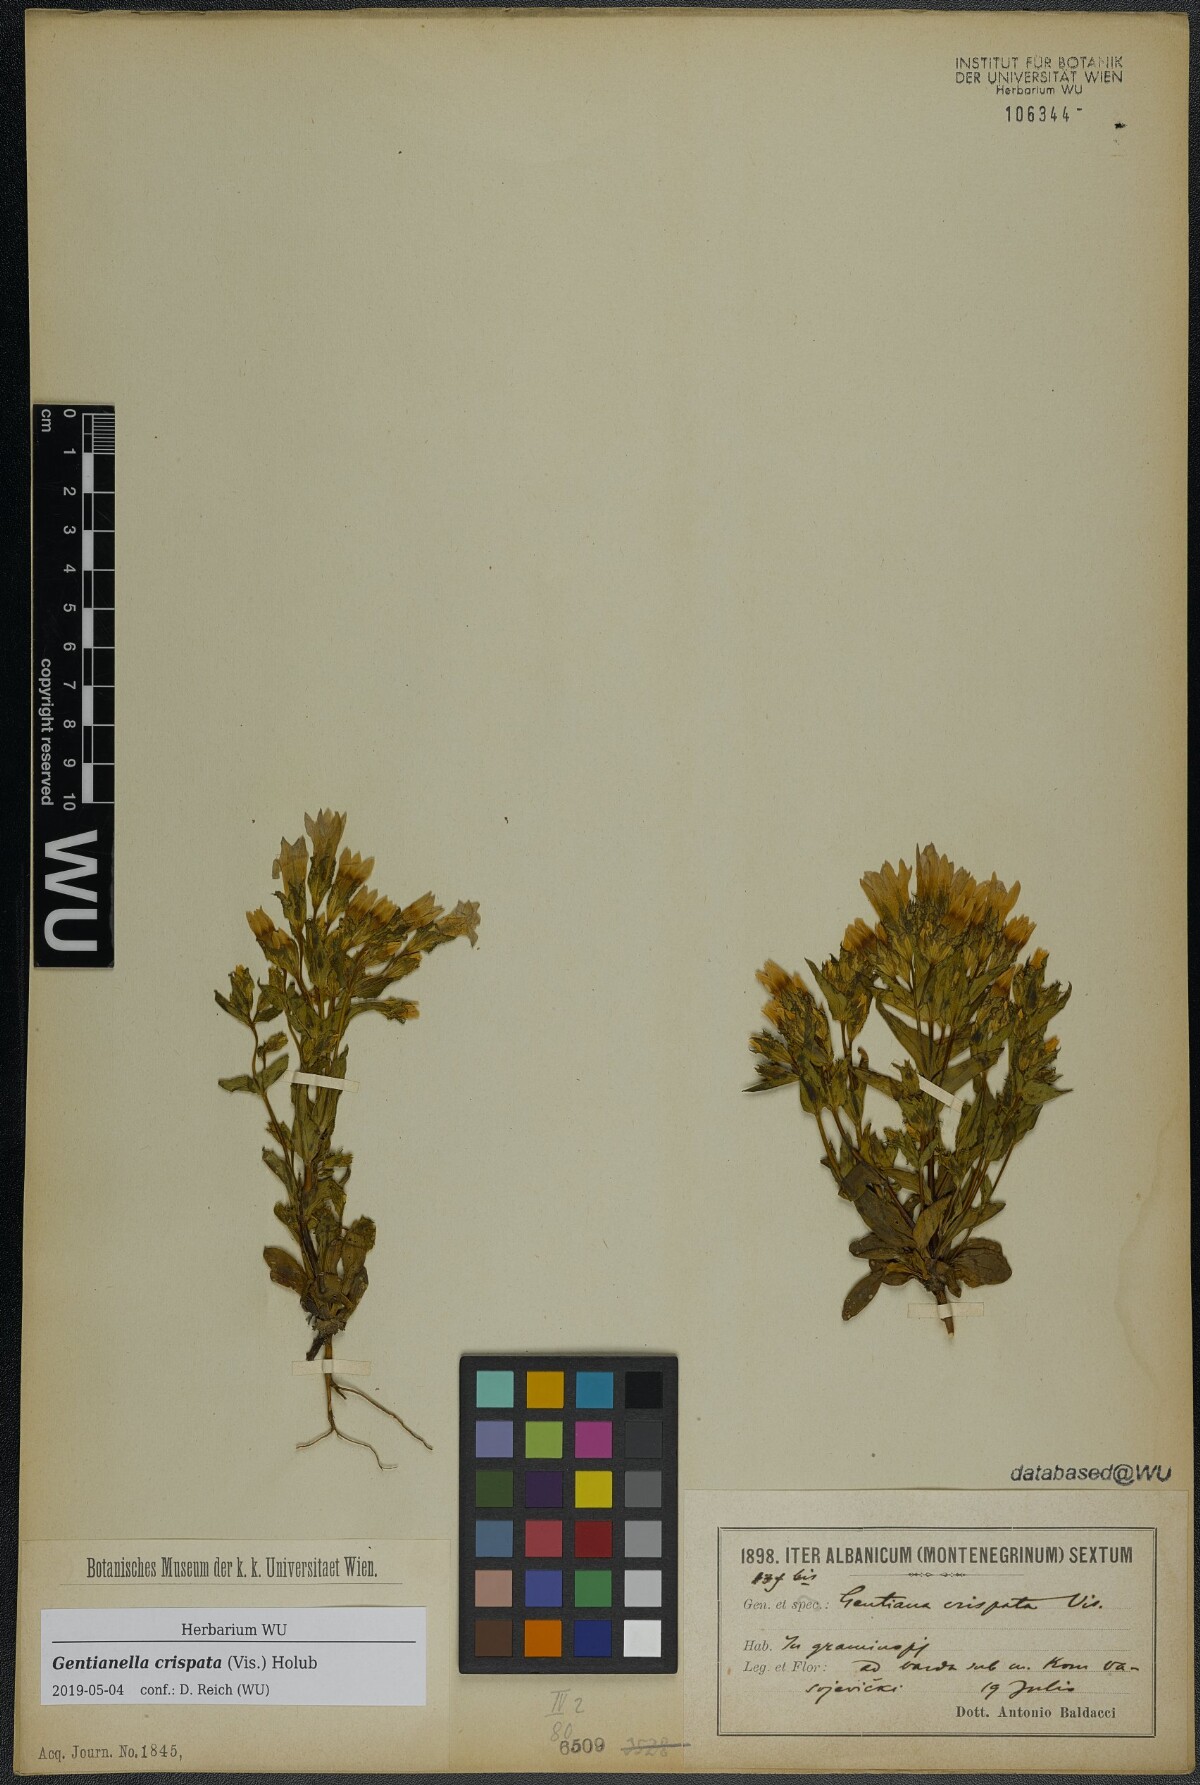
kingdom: Plantae
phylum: Tracheophyta
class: Magnoliopsida
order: Gentianales
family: Gentianaceae
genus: Gentianella
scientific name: Gentianella crispata
